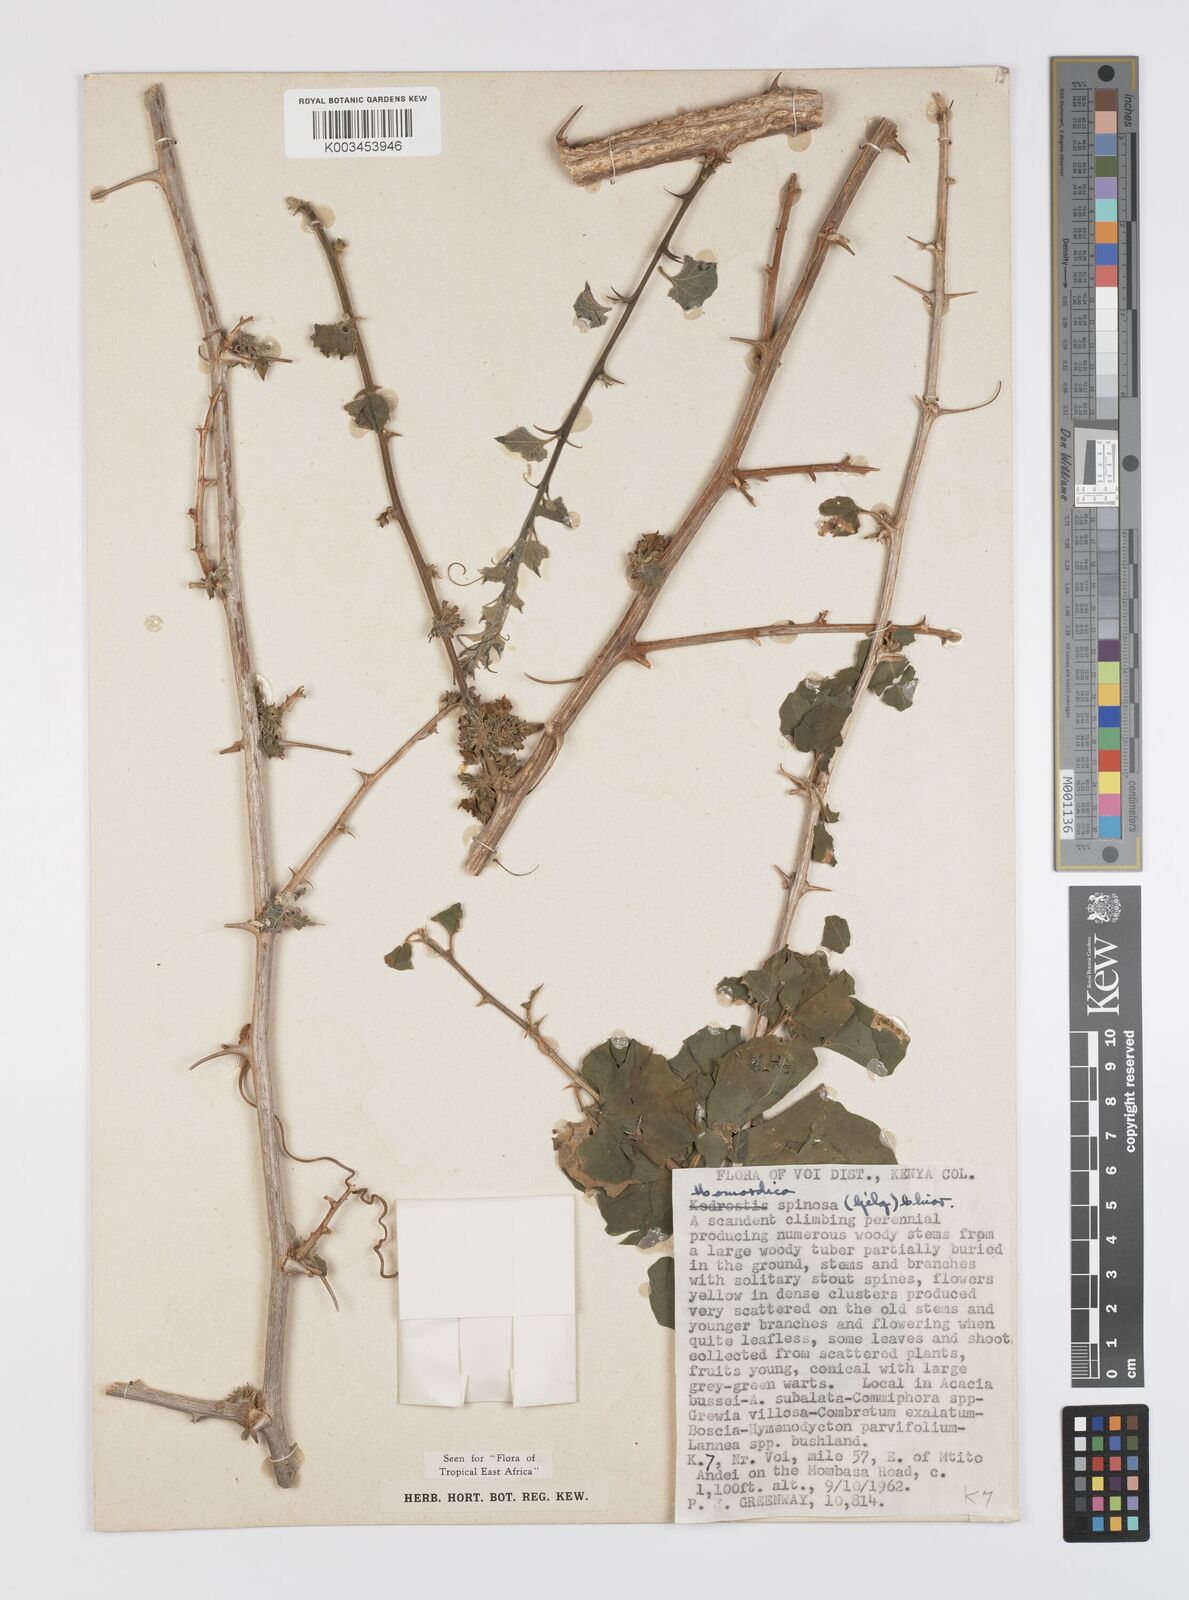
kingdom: Plantae
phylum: Tracheophyta
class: Magnoliopsida
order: Cucurbitales
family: Cucurbitaceae
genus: Momordica
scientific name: Momordica spinosa
